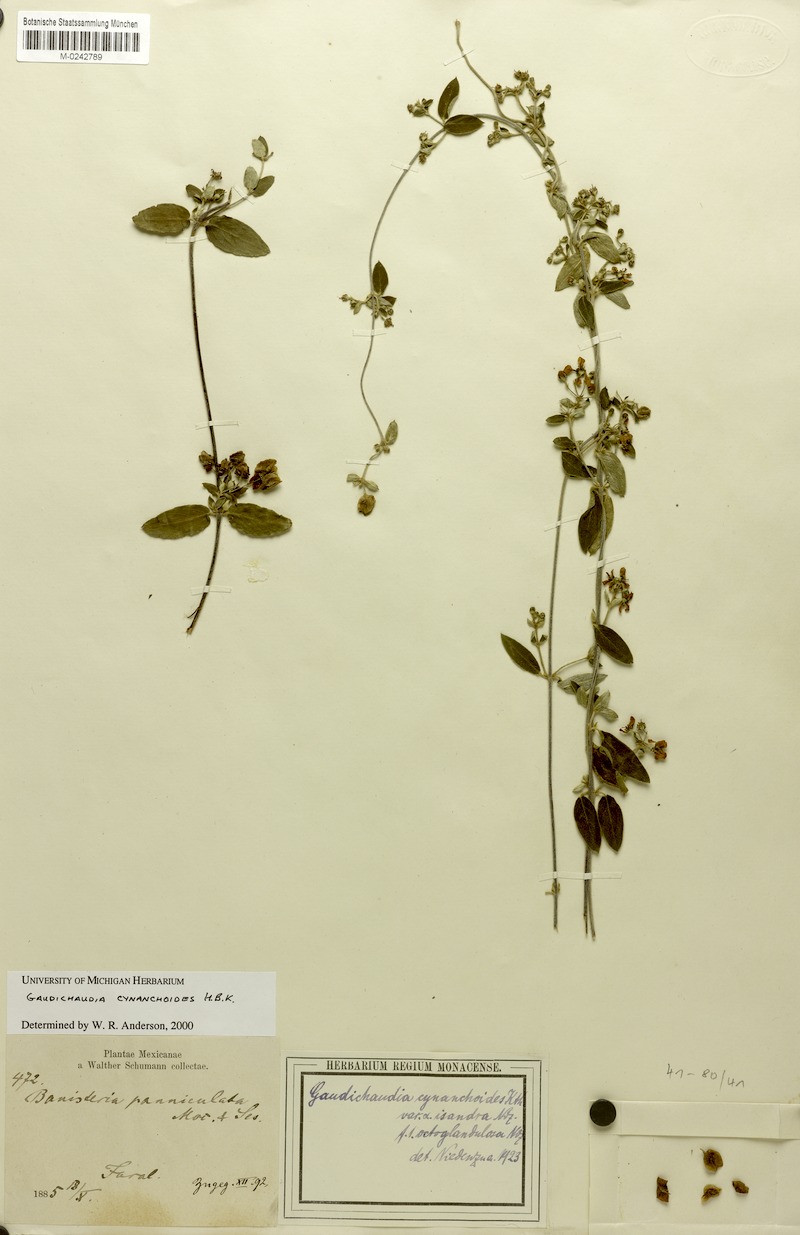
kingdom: Plantae
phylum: Tracheophyta
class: Magnoliopsida
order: Malpighiales
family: Malpighiaceae
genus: Gaudichaudia
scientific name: Gaudichaudia cynanchoides
